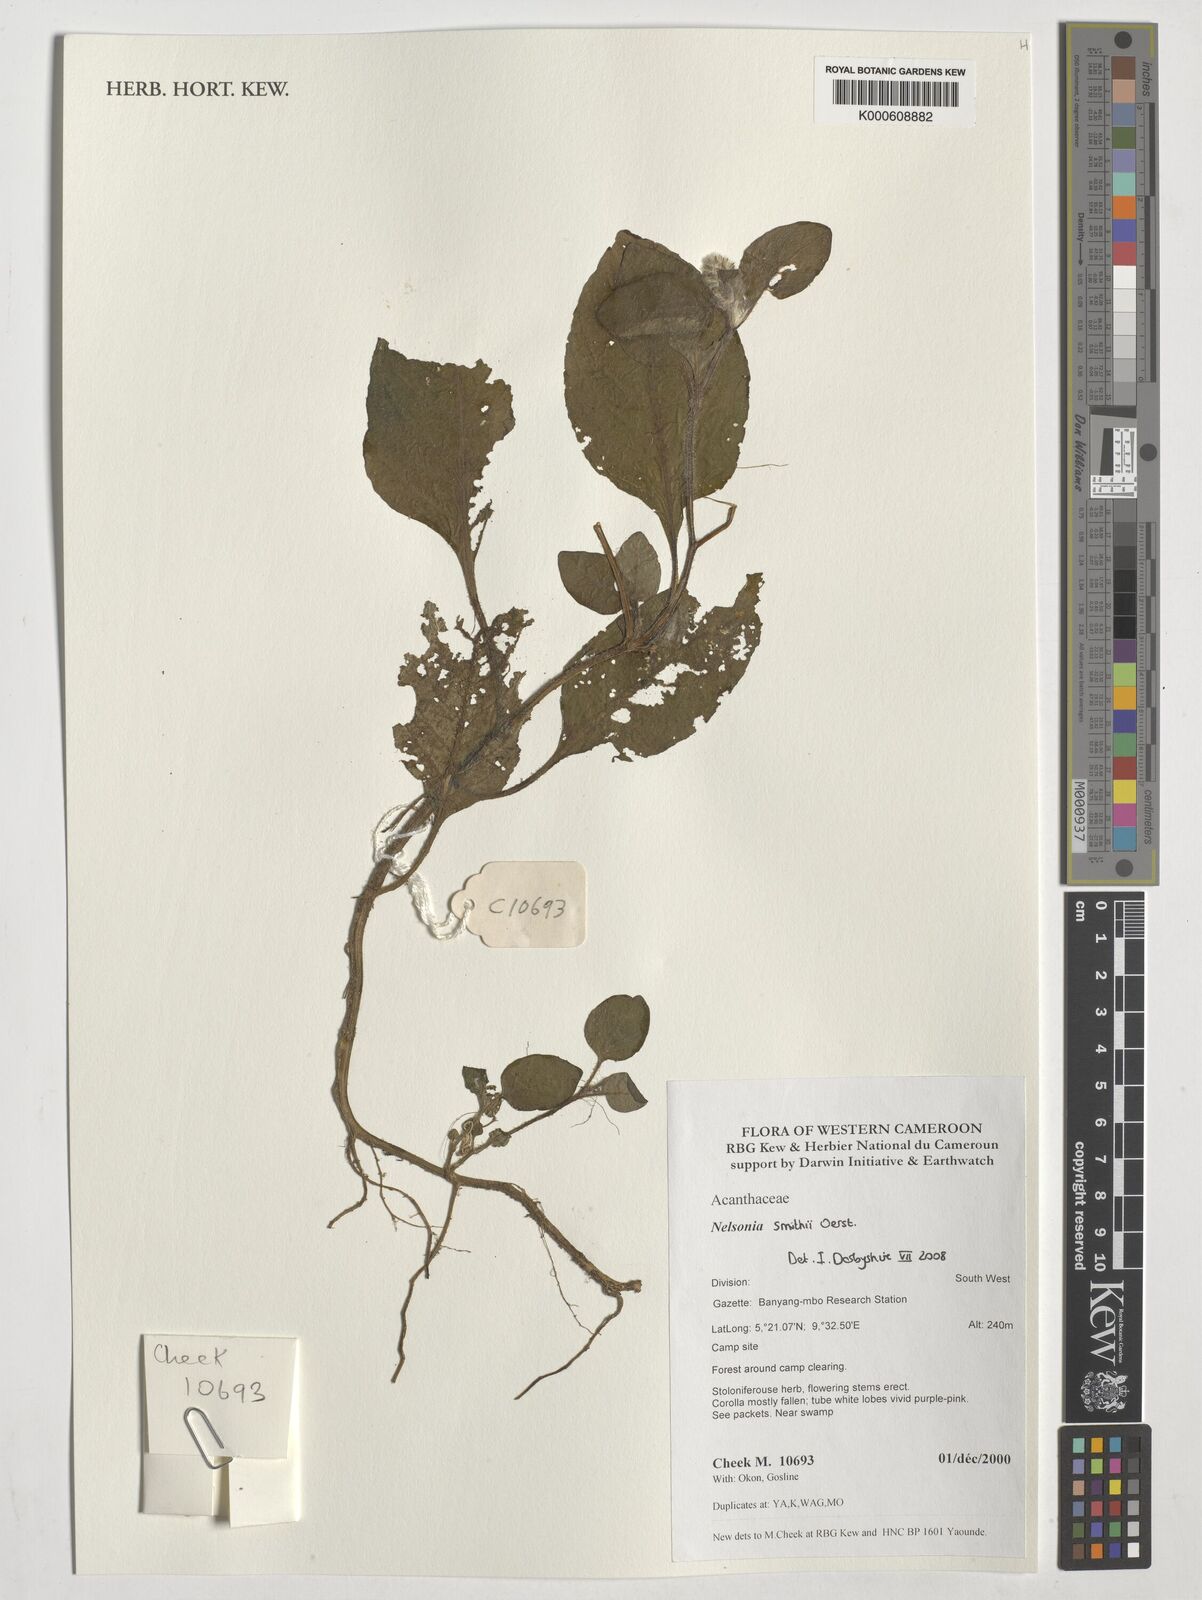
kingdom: Plantae
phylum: Tracheophyta
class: Magnoliopsida
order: Lamiales
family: Acanthaceae
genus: Nelsonia
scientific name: Nelsonia smithii
